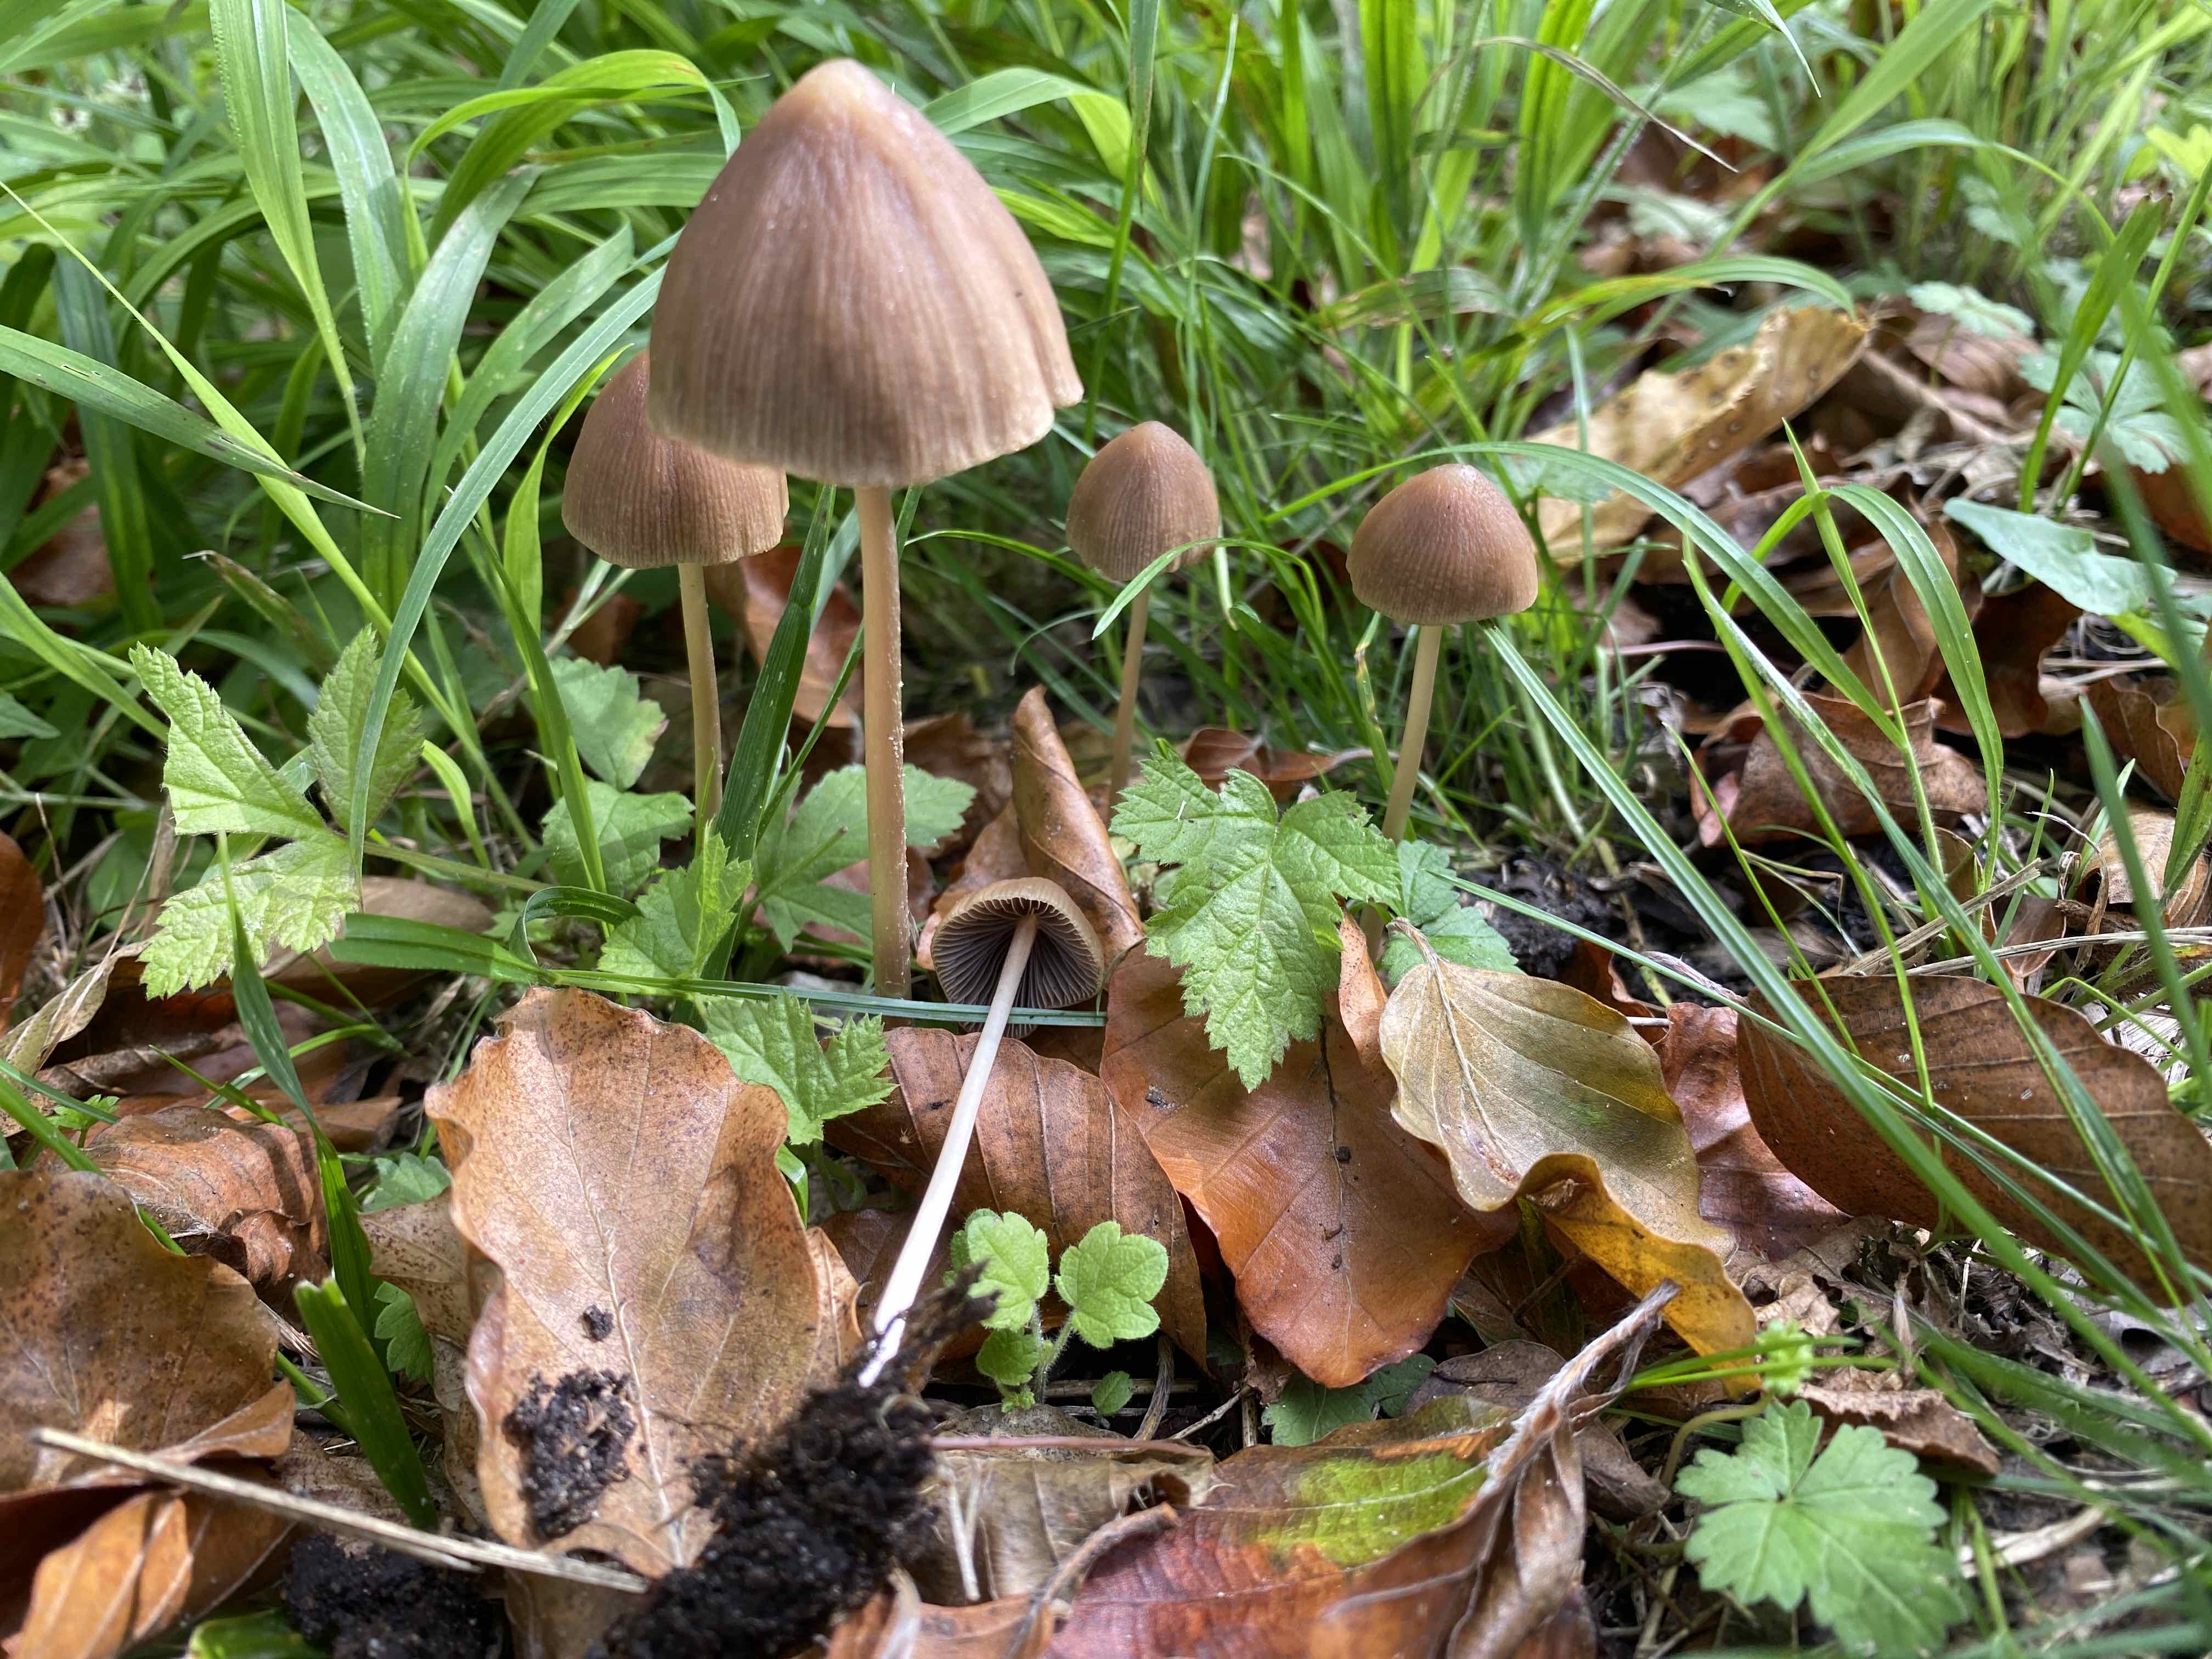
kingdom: Fungi
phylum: Basidiomycota
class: Agaricomycetes
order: Agaricales
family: Psathyrellaceae
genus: Parasola
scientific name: Parasola conopilea
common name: kegle-hjulhat
